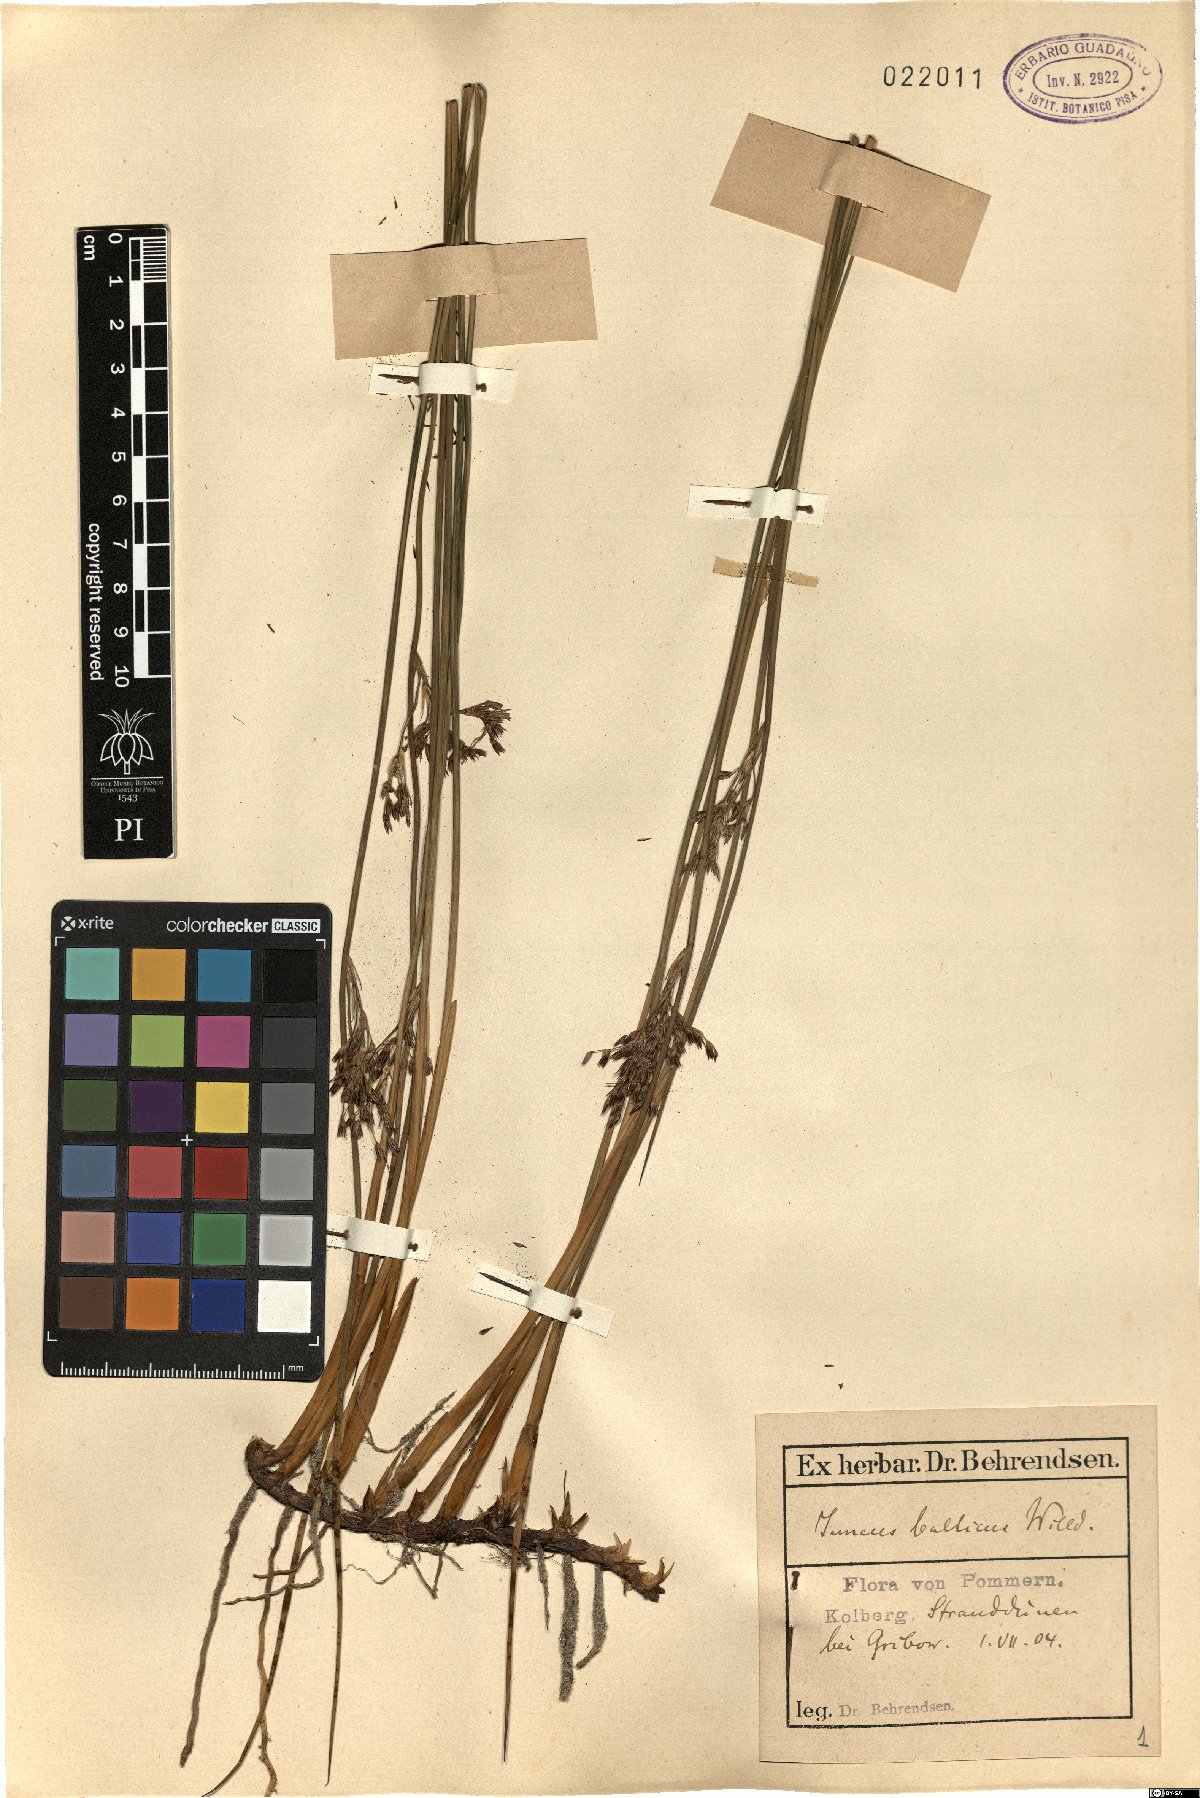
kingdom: Plantae
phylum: Tracheophyta
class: Liliopsida
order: Poales
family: Juncaceae
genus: Juncus
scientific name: Juncus balticus
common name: Baltic rush
